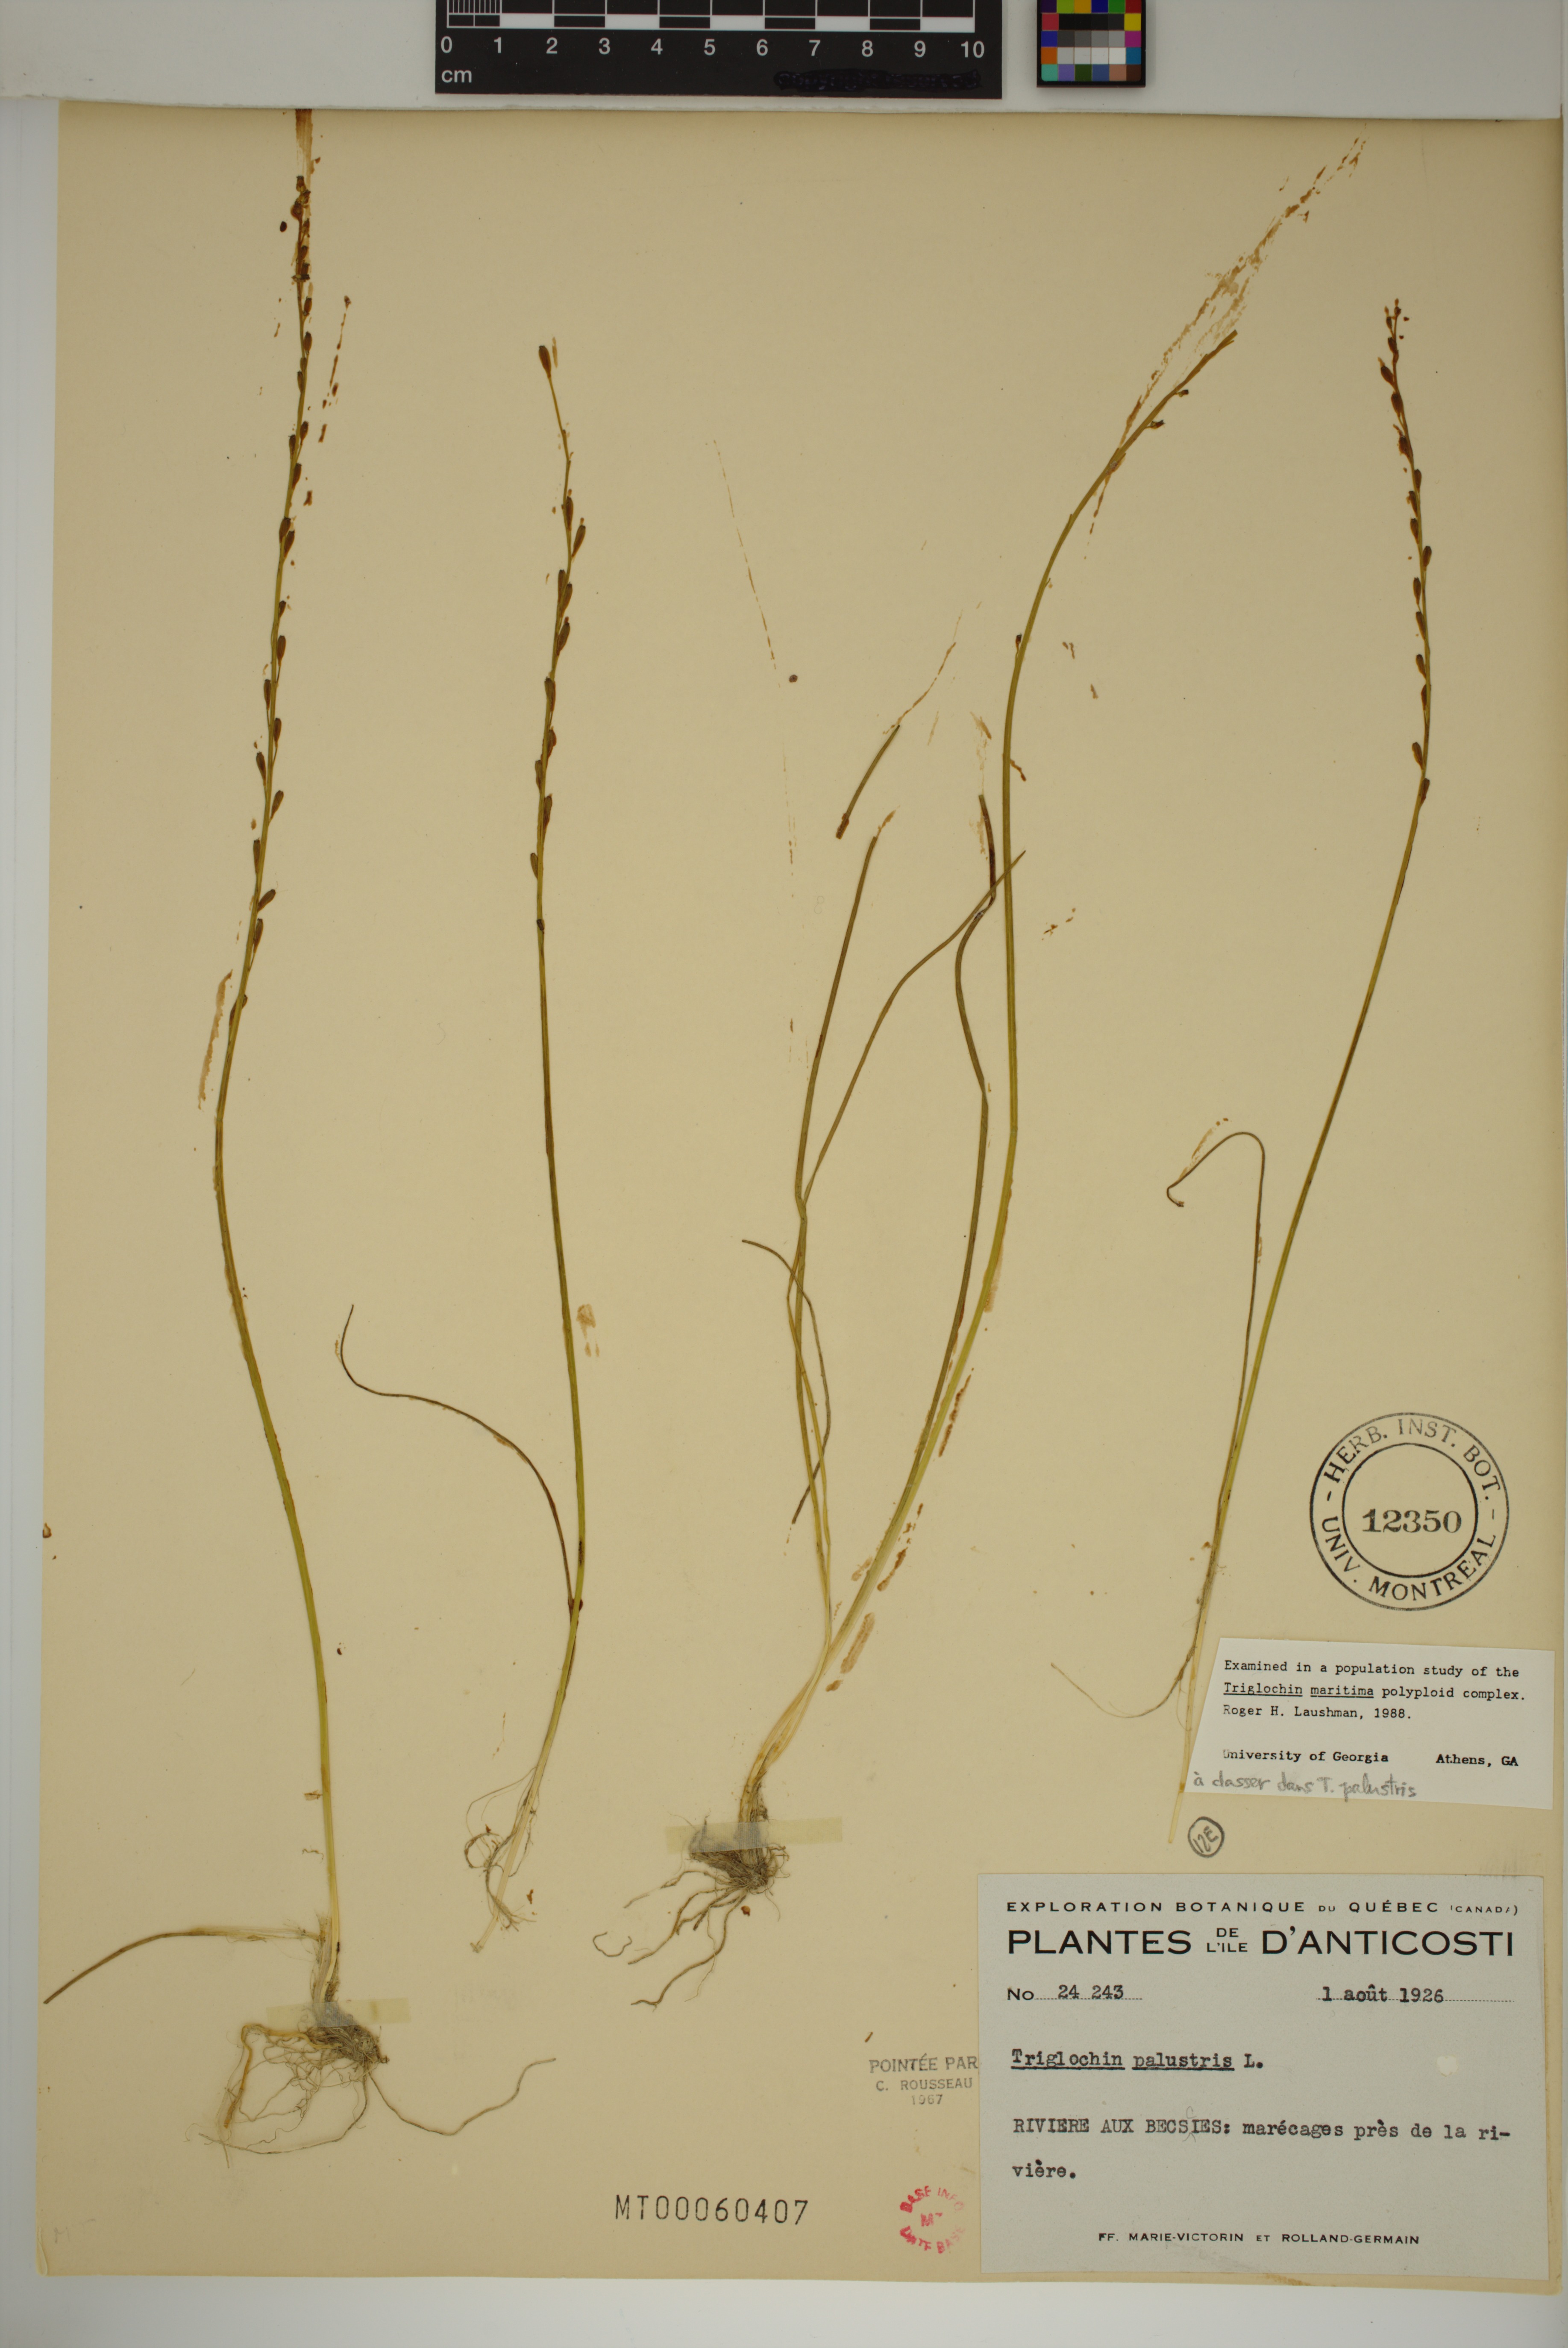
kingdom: Plantae
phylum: Tracheophyta
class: Liliopsida
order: Alismatales
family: Juncaginaceae
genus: Triglochin
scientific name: Triglochin palustris
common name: Marsh arrowgrass
